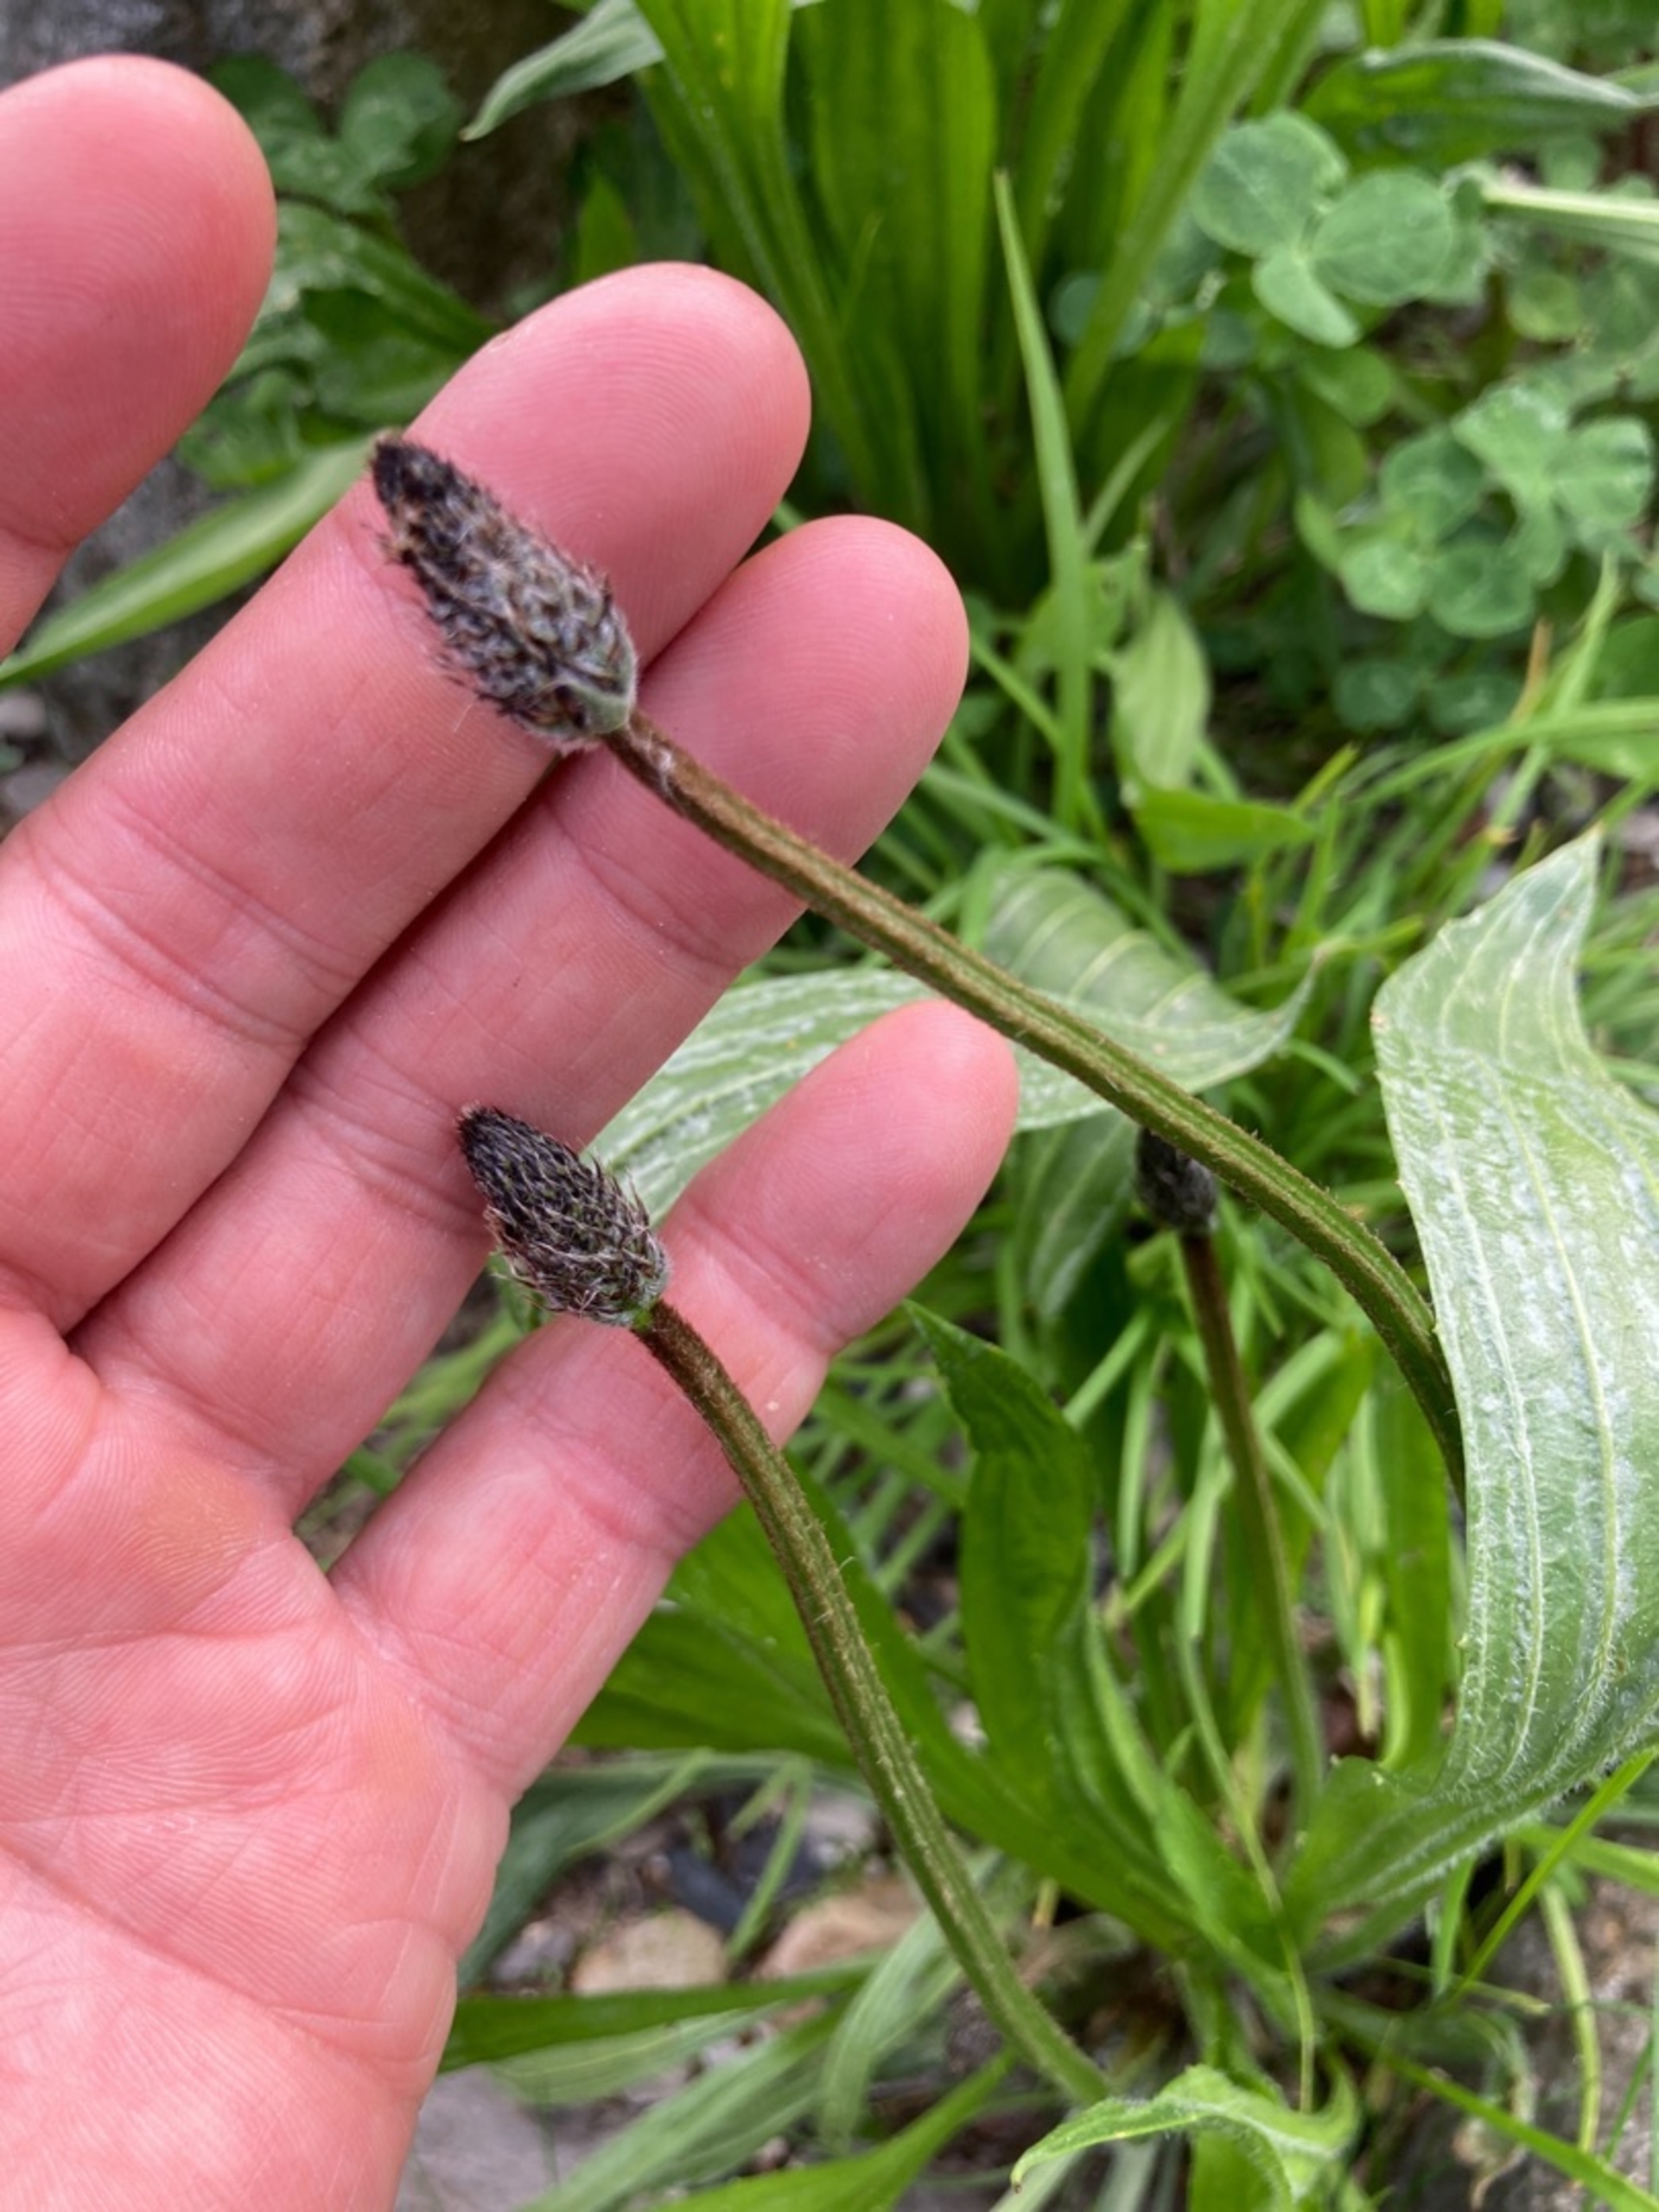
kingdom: Plantae
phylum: Tracheophyta
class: Magnoliopsida
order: Lamiales
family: Plantaginaceae
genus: Plantago
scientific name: Plantago lanceolata
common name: Lancet-vejbred
